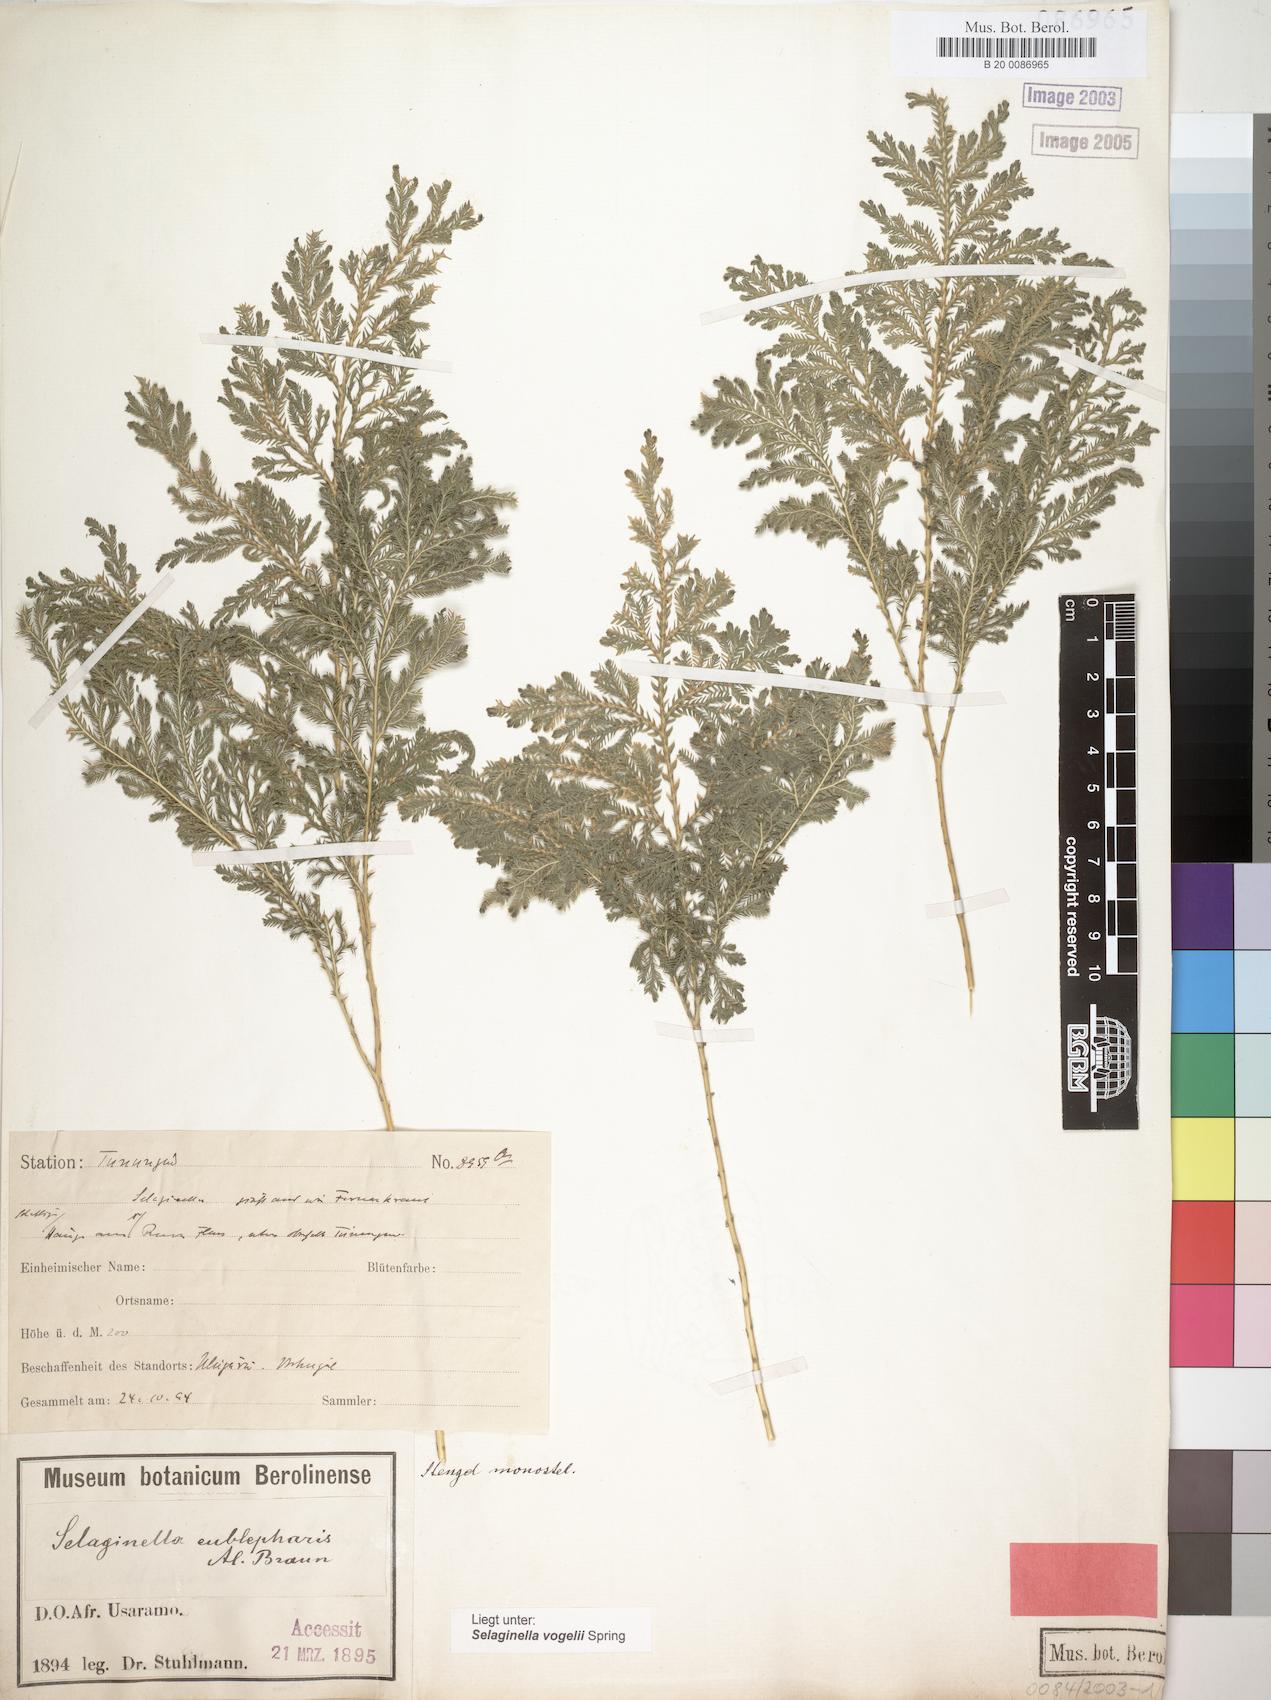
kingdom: Plantae
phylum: Tracheophyta
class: Lycopodiopsida
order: Selaginellales
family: Selaginellaceae
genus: Selaginella
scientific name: Selaginella eublepharis
